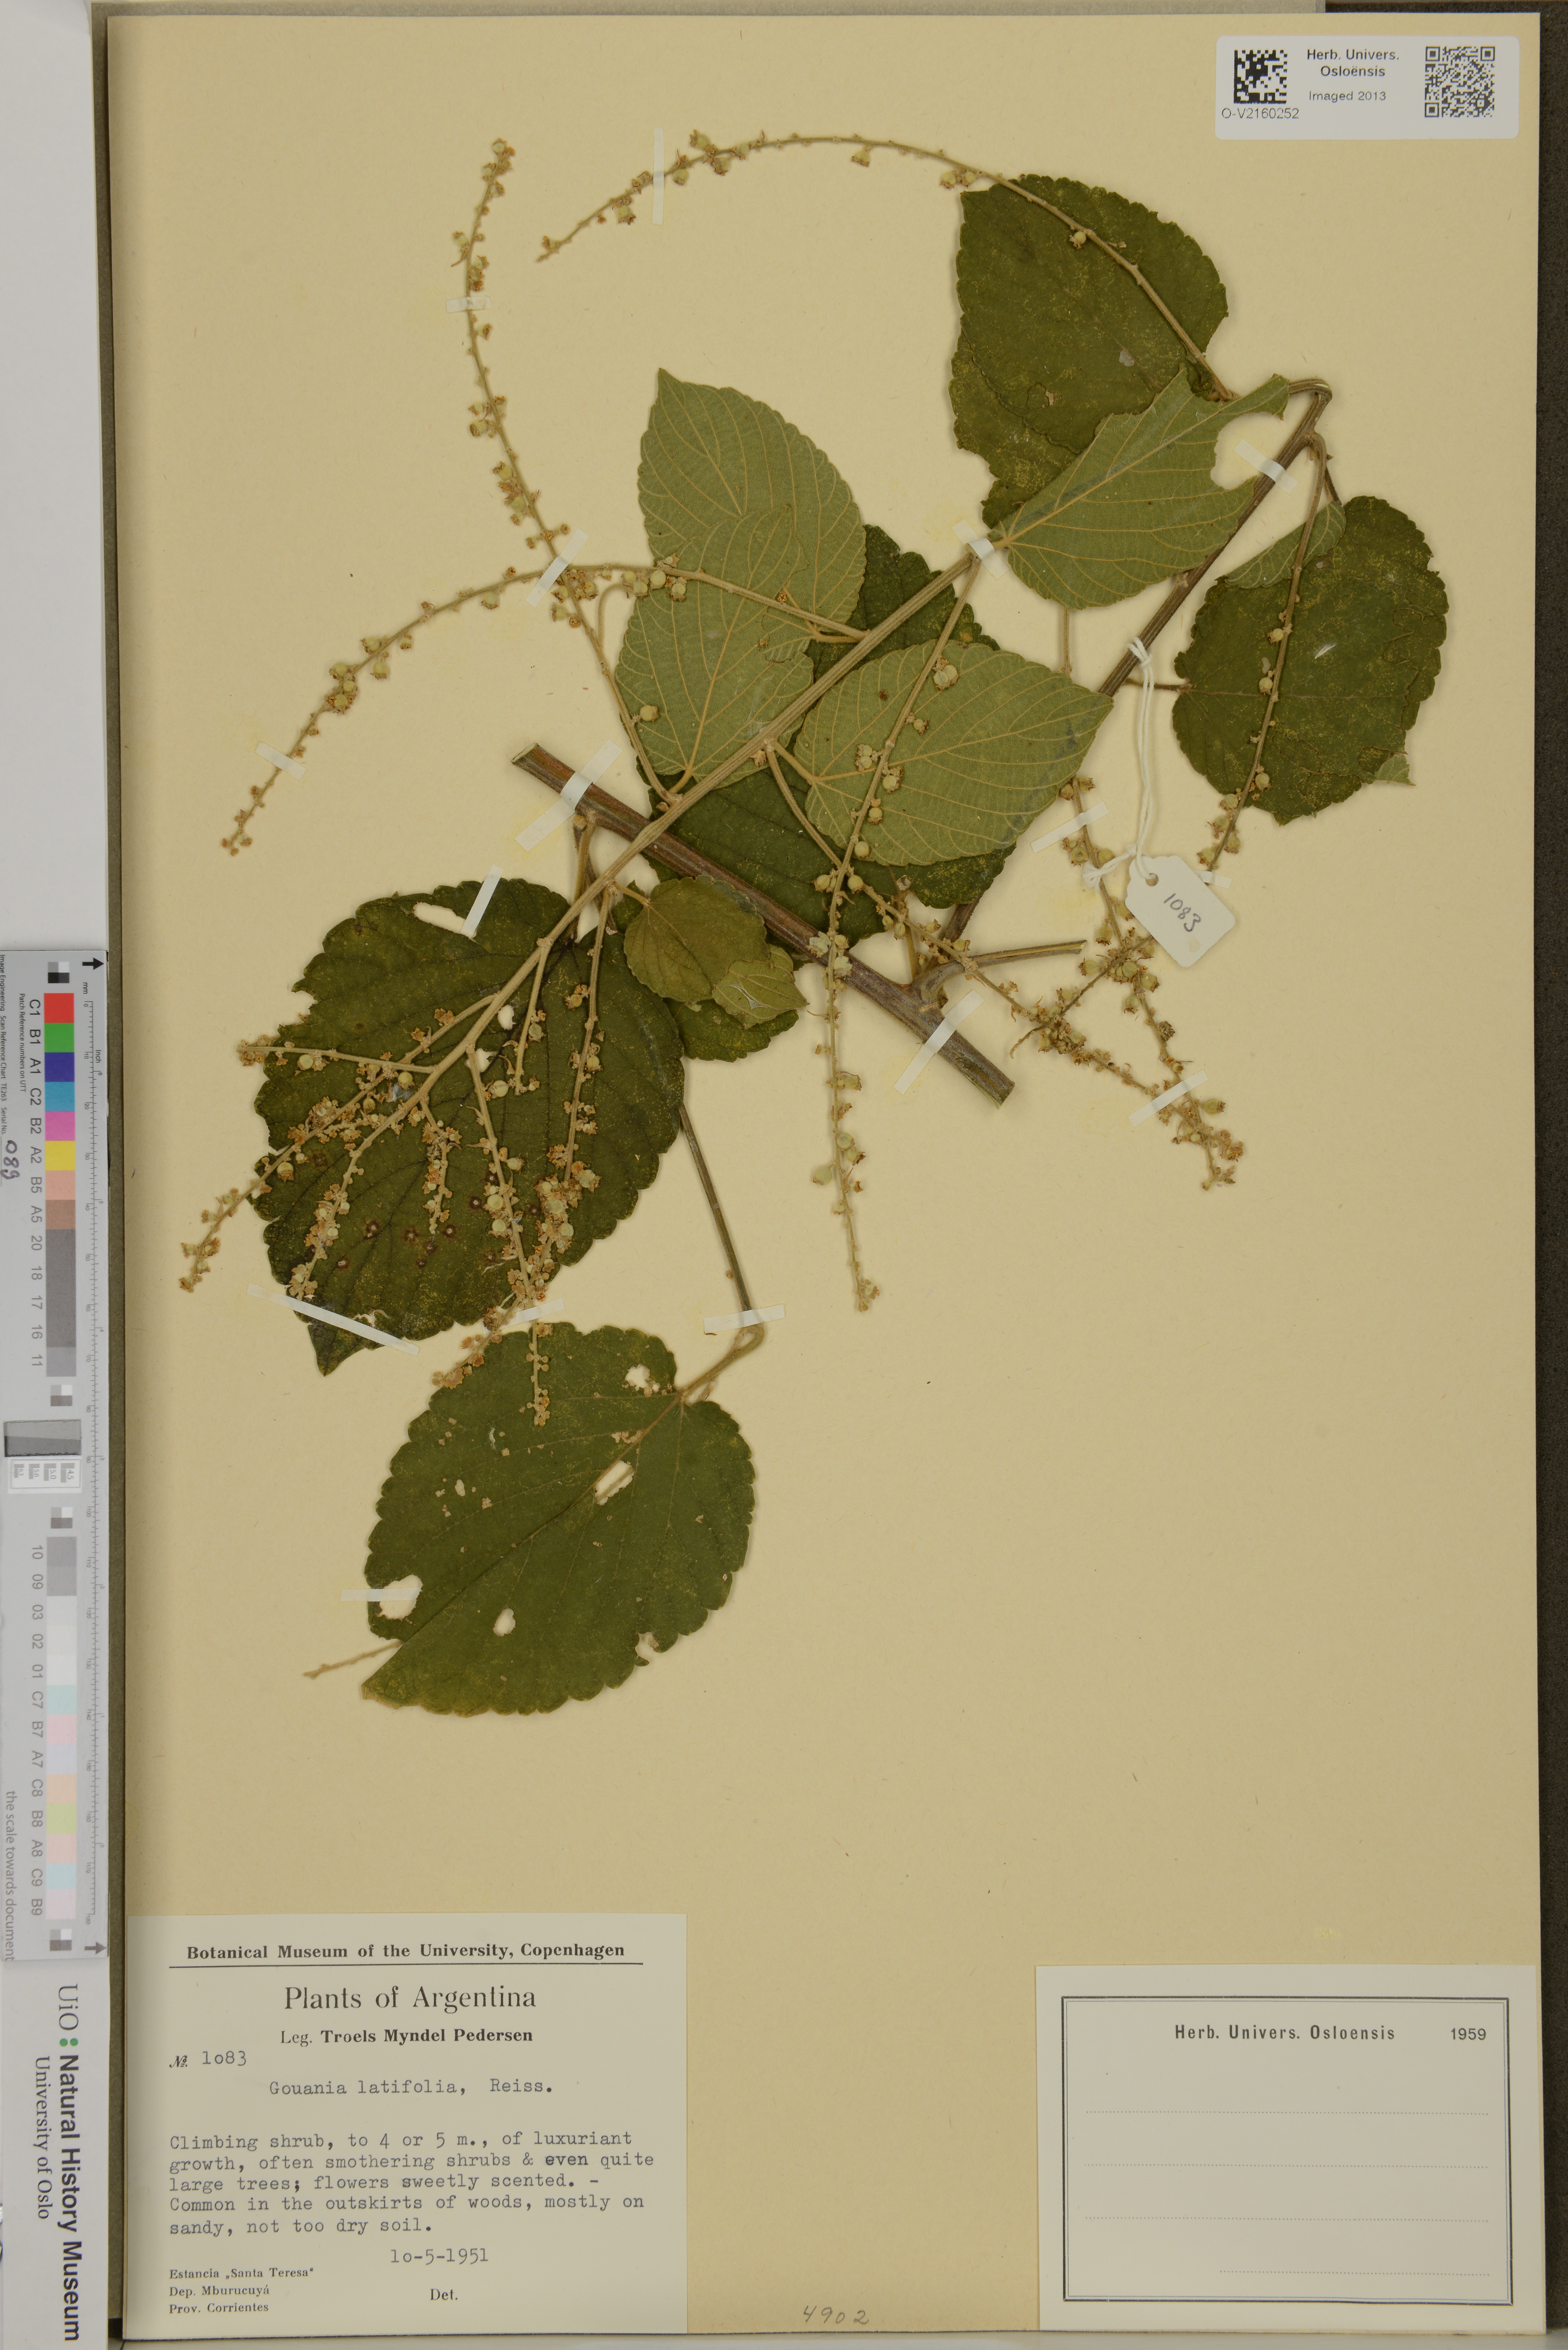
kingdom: Plantae
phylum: Tracheophyta
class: Magnoliopsida
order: Rosales
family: Rhamnaceae
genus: Gouania
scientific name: Gouania latifolia
